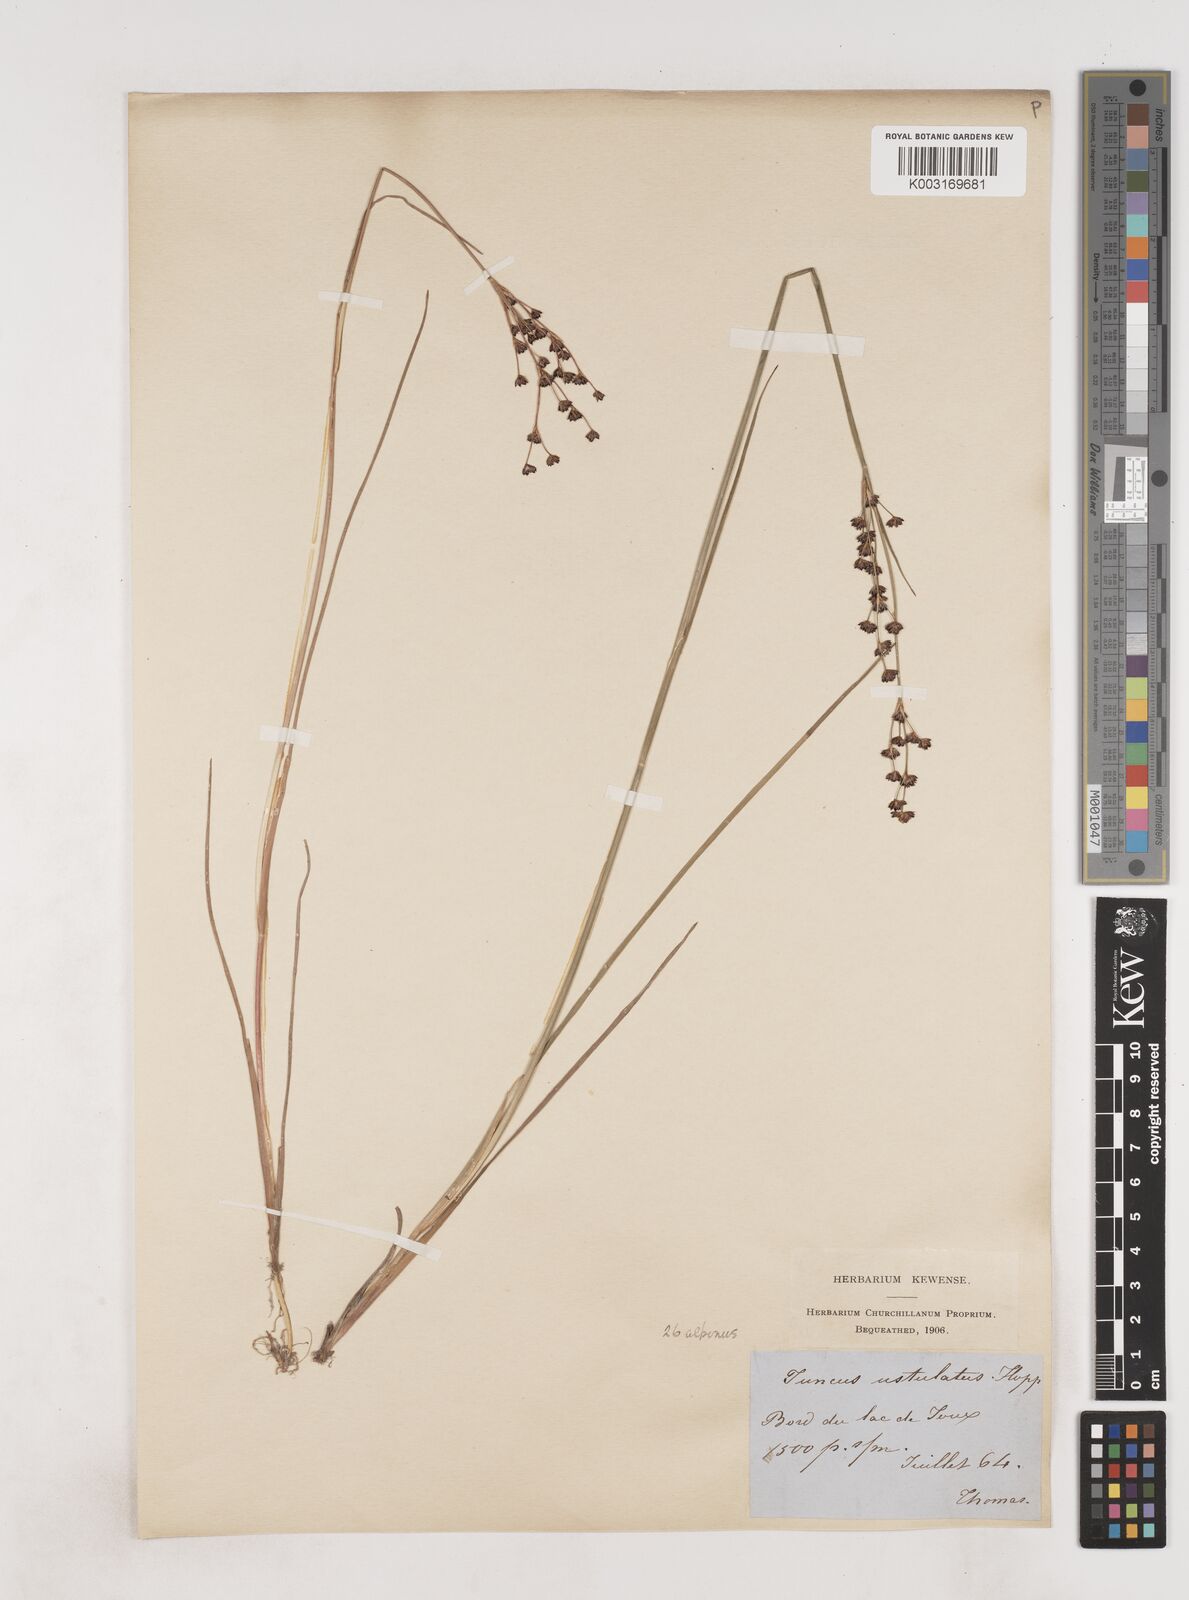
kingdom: Plantae
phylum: Tracheophyta
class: Liliopsida
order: Poales
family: Juncaceae
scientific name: Juncaceae
